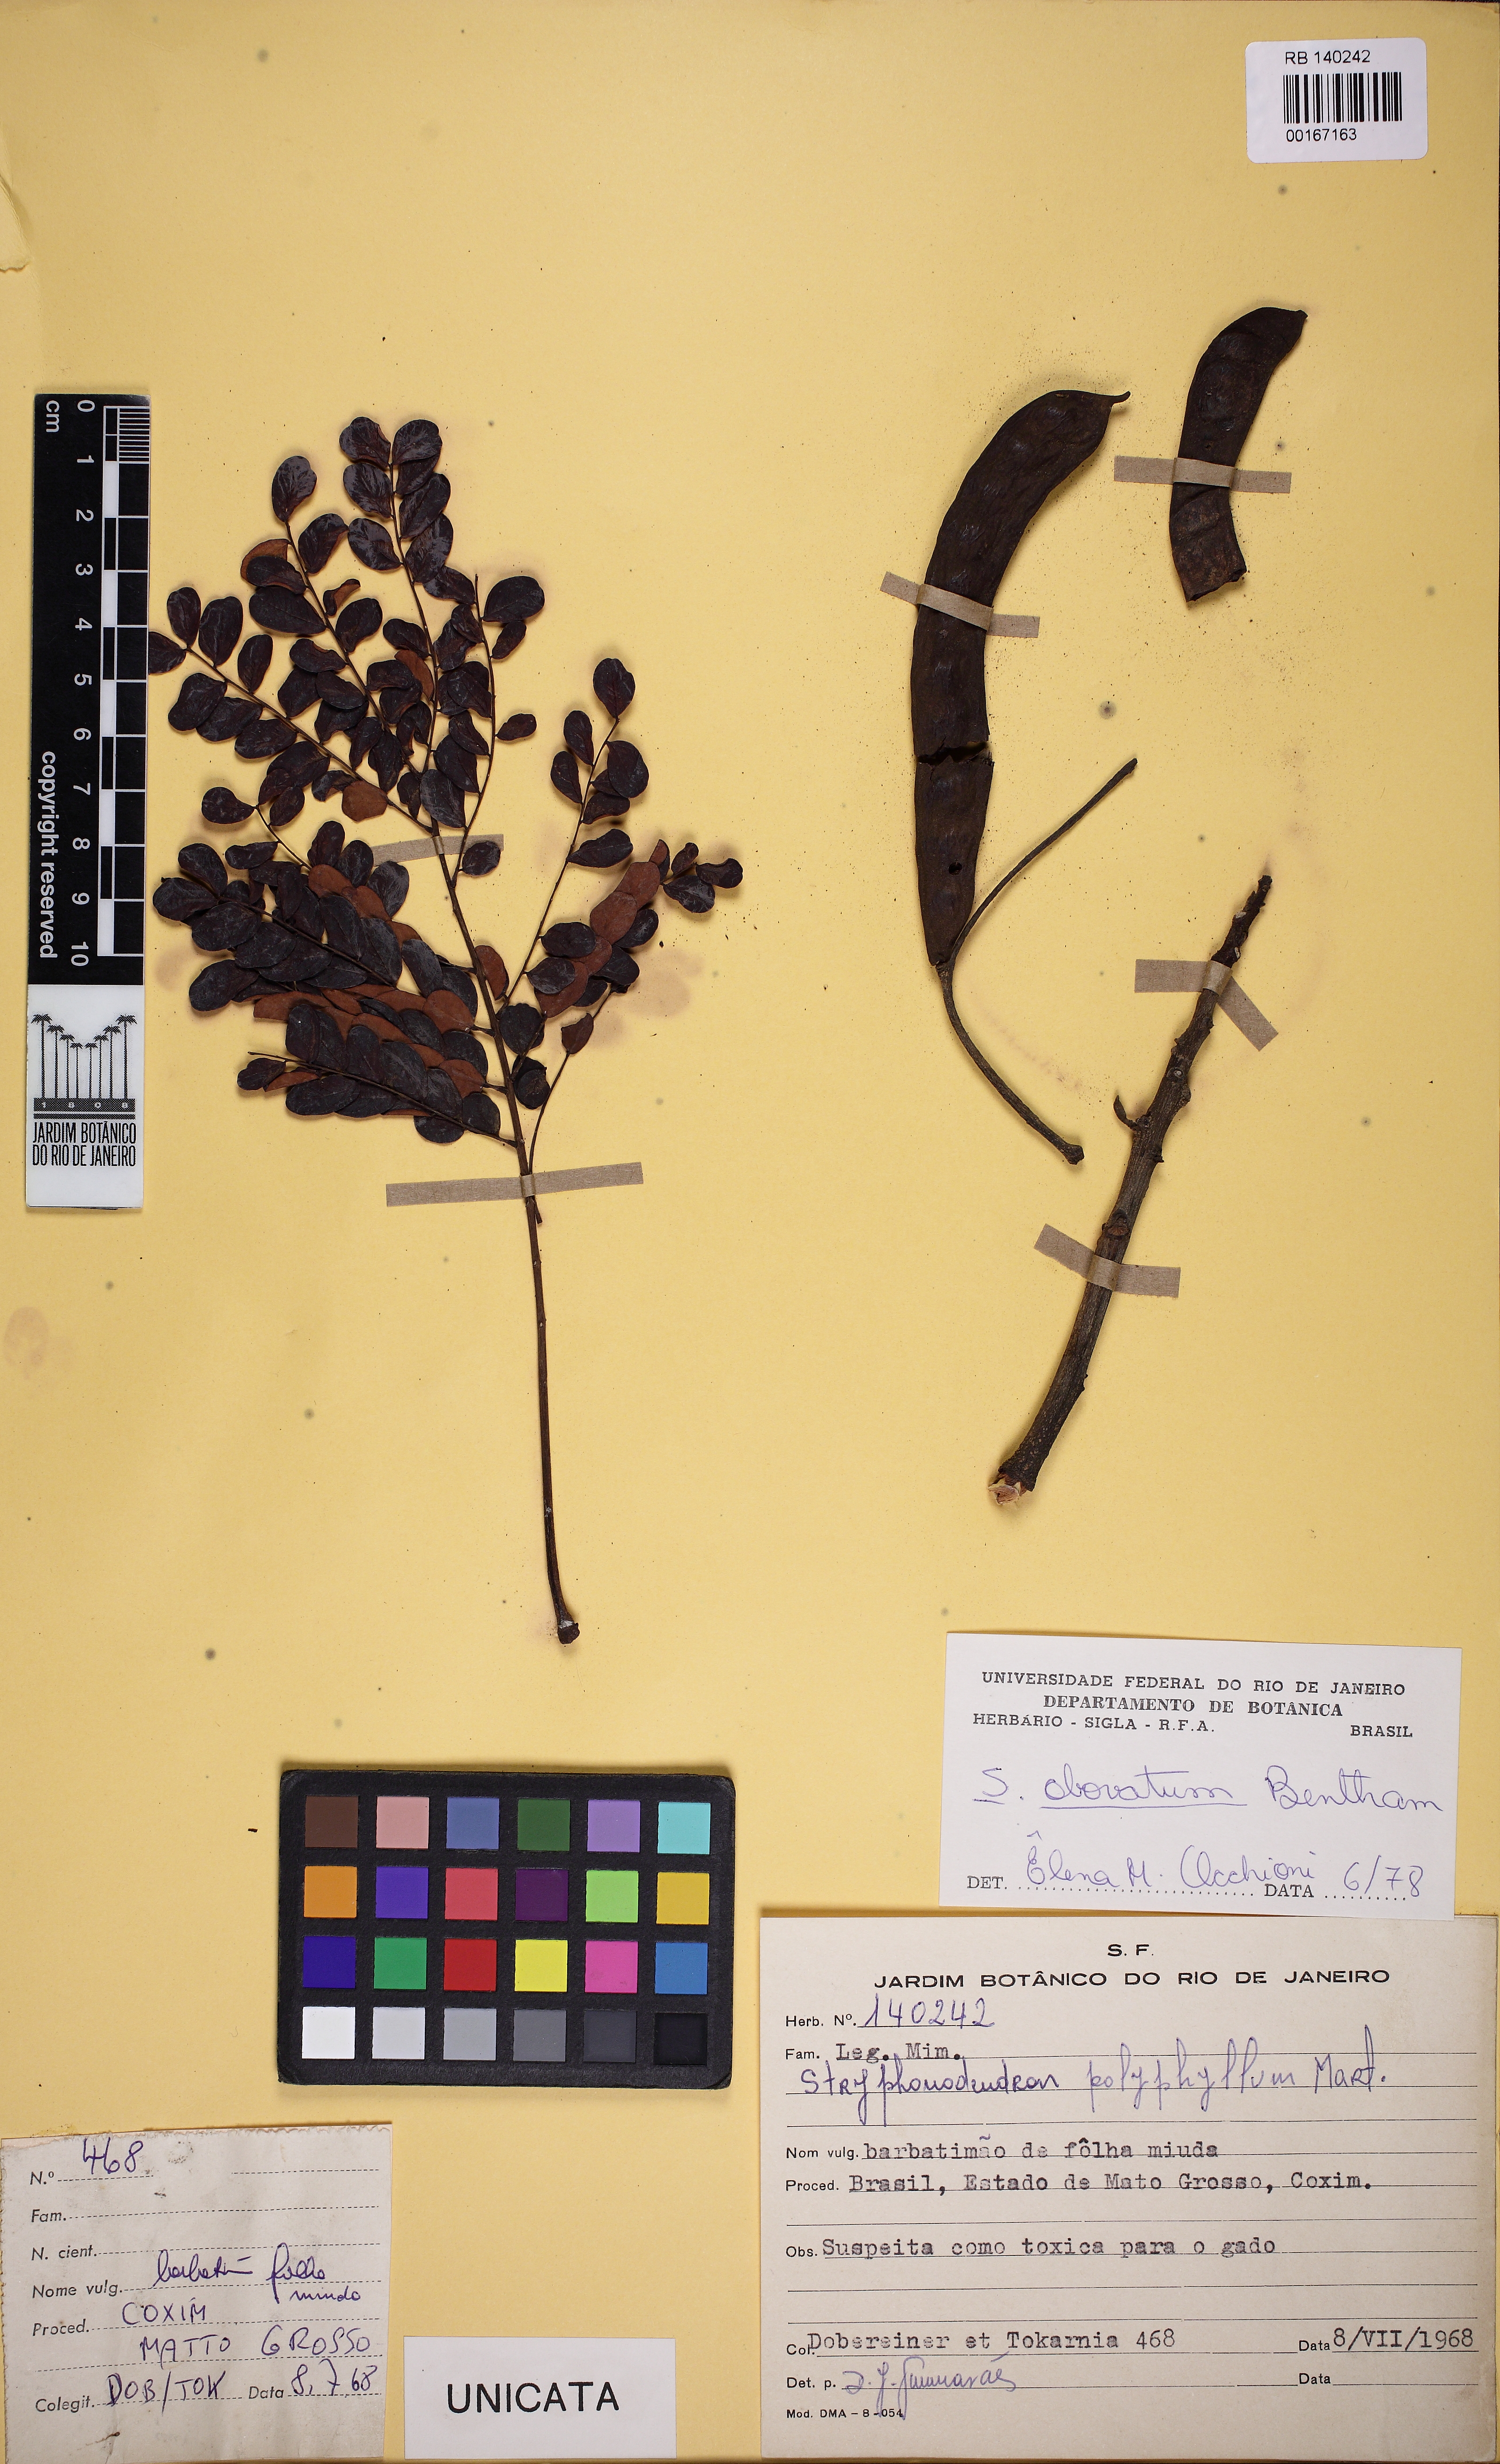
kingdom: Plantae
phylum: Tracheophyta
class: Magnoliopsida
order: Fabales
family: Fabaceae
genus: Stryphnodendron
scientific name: Stryphnodendron
